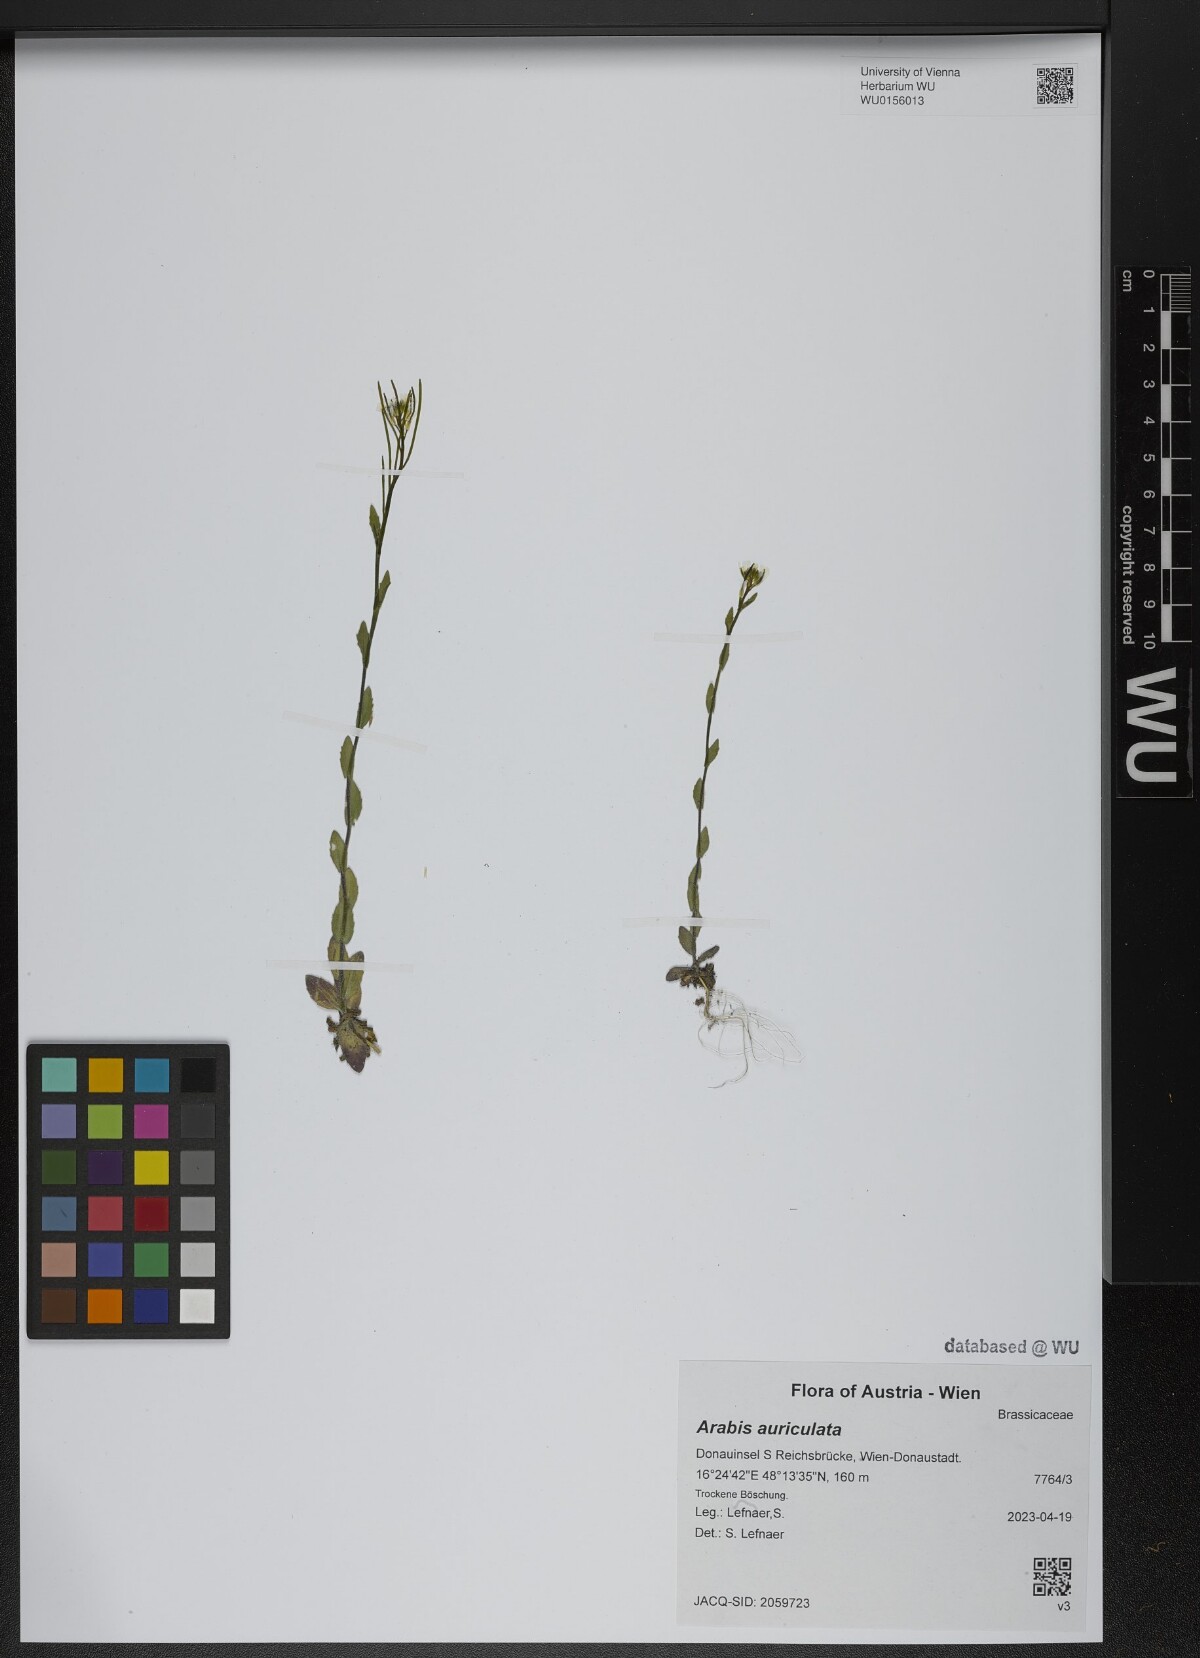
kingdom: Plantae
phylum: Tracheophyta
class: Magnoliopsida
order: Brassicales
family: Brassicaceae
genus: Arabis
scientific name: Arabis auriculata
